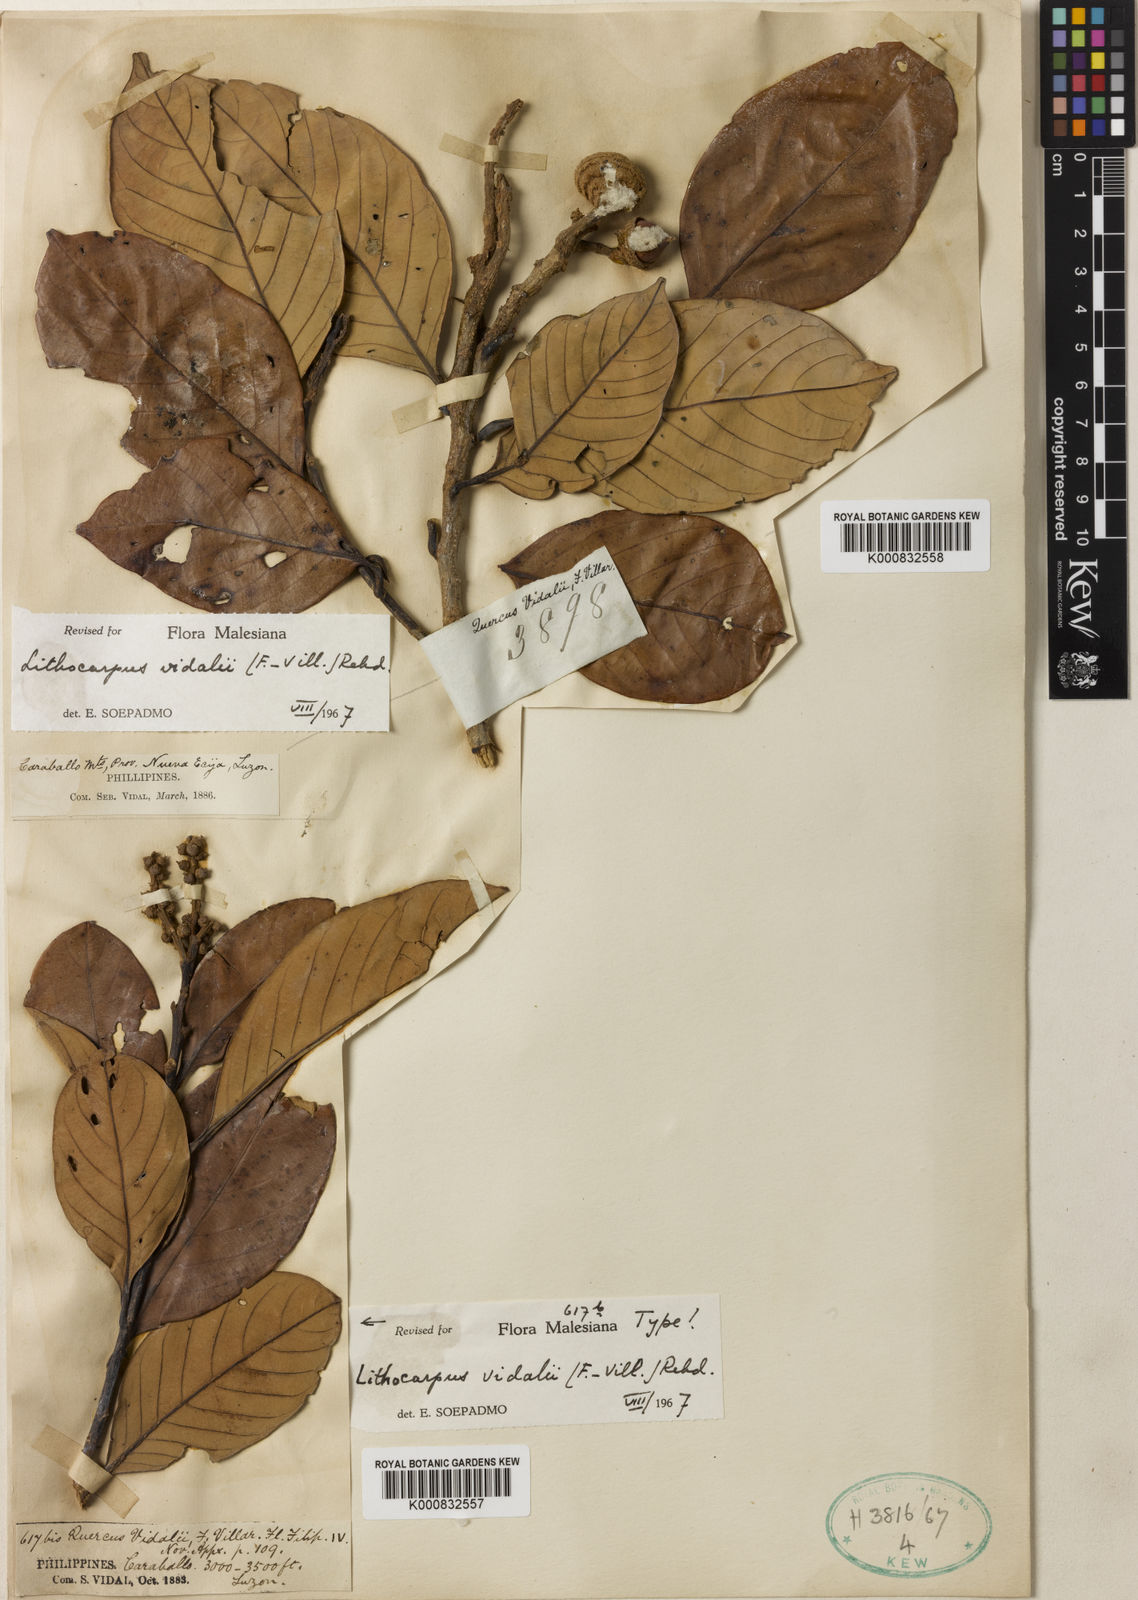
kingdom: Plantae
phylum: Tracheophyta
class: Magnoliopsida
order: Fagales
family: Fagaceae
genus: Lithocarpus
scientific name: Lithocarpus vidalii
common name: Vidal oak
